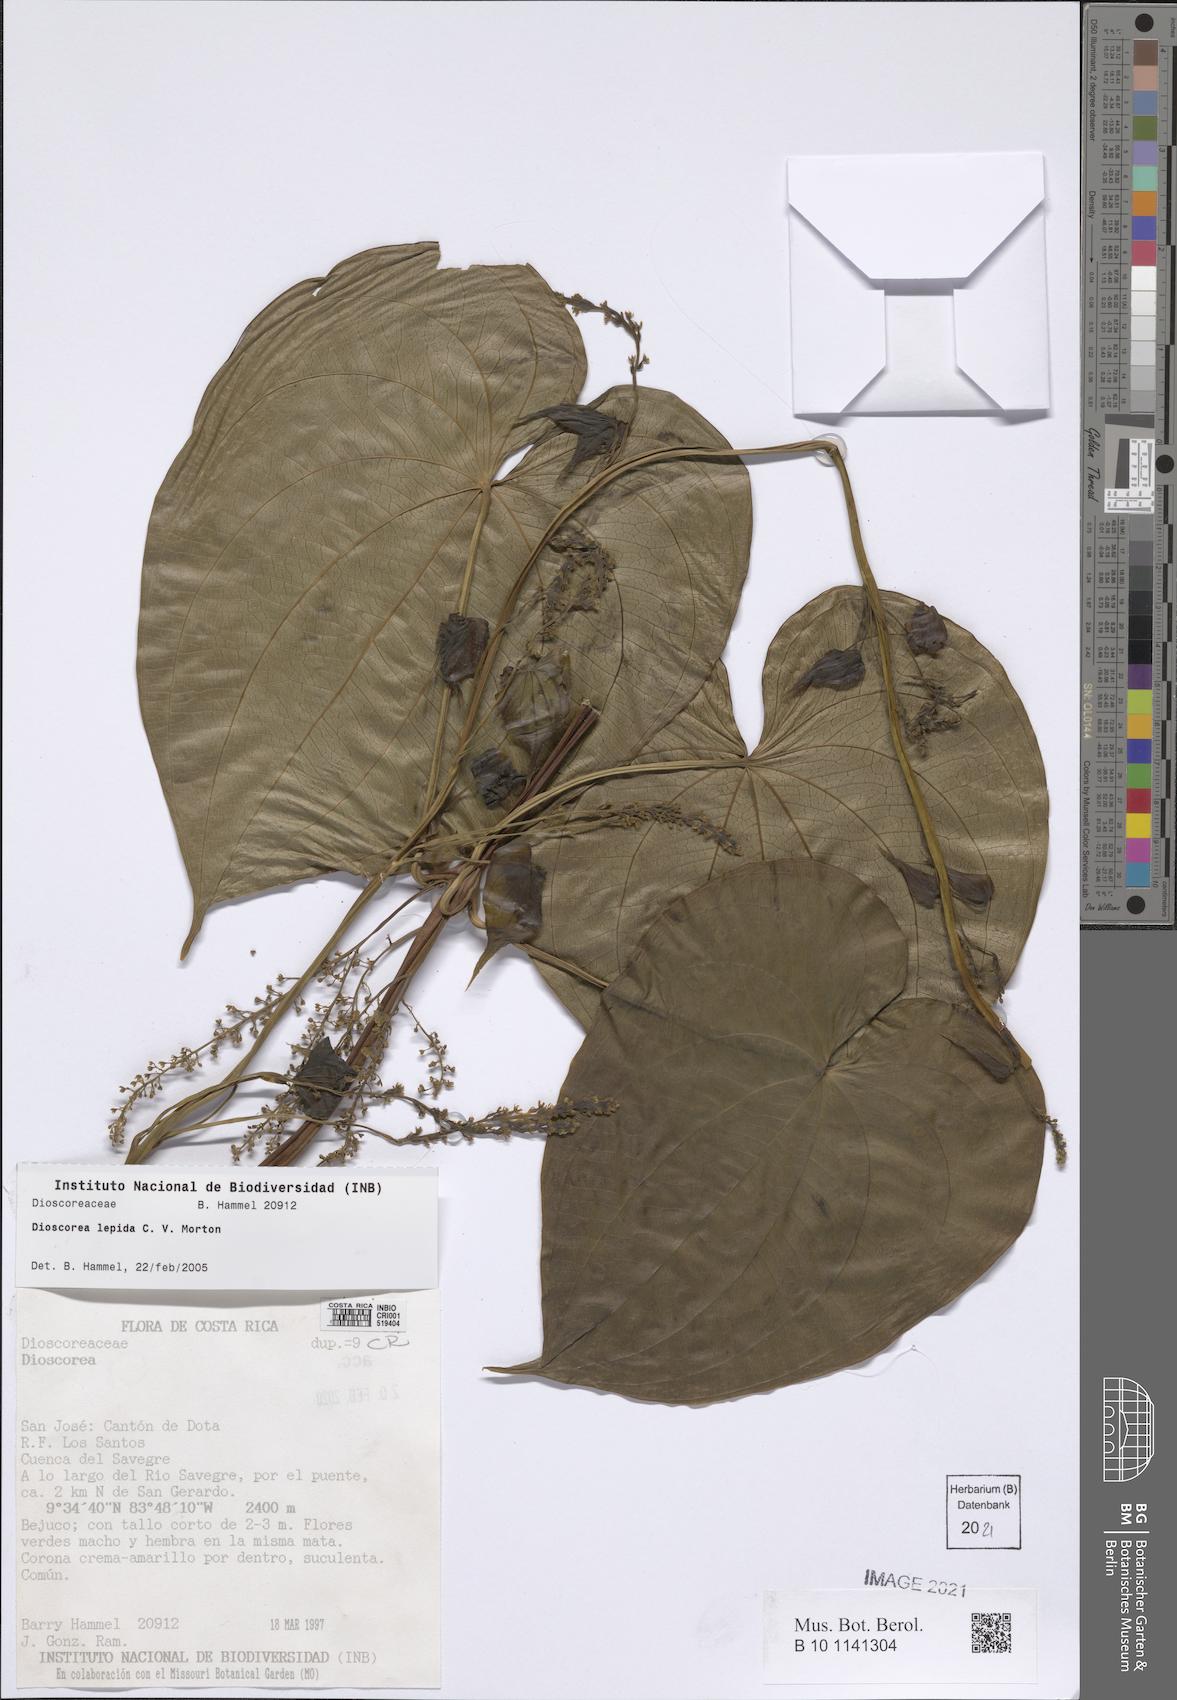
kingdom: Plantae
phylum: Tracheophyta
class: Liliopsida
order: Dioscoreales
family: Dioscoreaceae
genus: Dioscorea
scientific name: Dioscorea lepida
